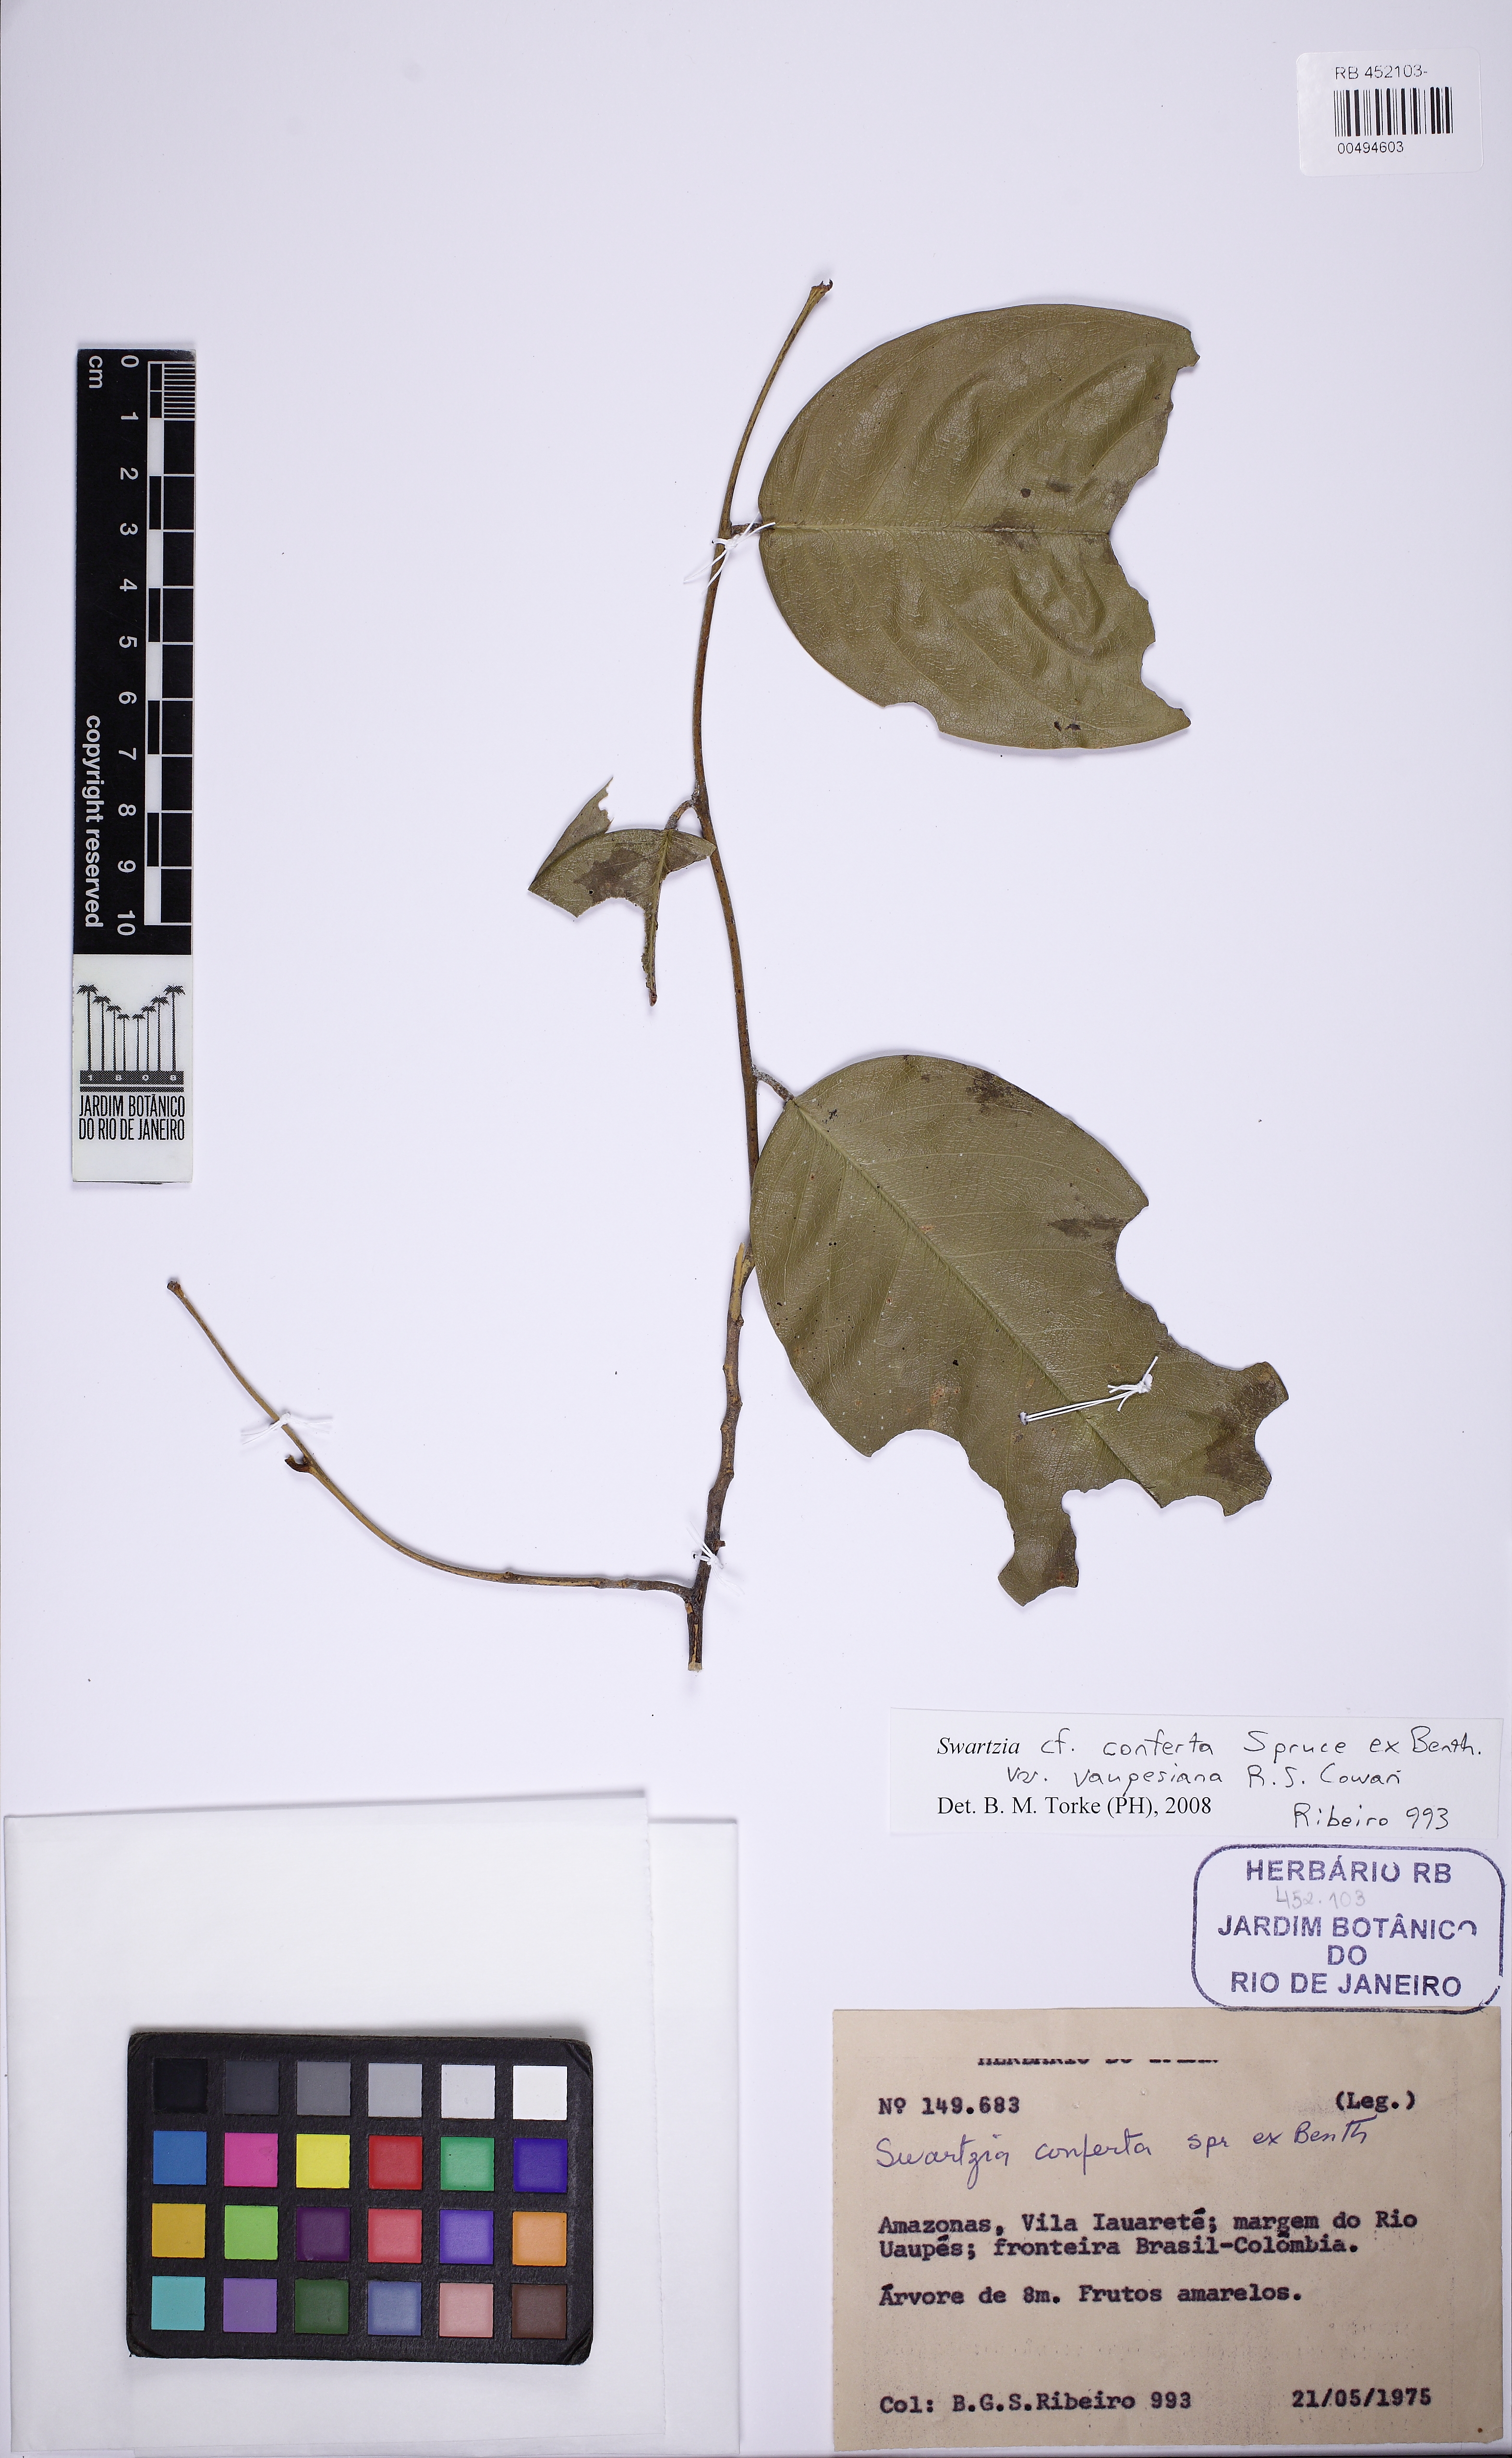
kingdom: Plantae
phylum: Tracheophyta
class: Magnoliopsida
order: Fabales
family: Fabaceae
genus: Swartzia
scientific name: Swartzia conferta
